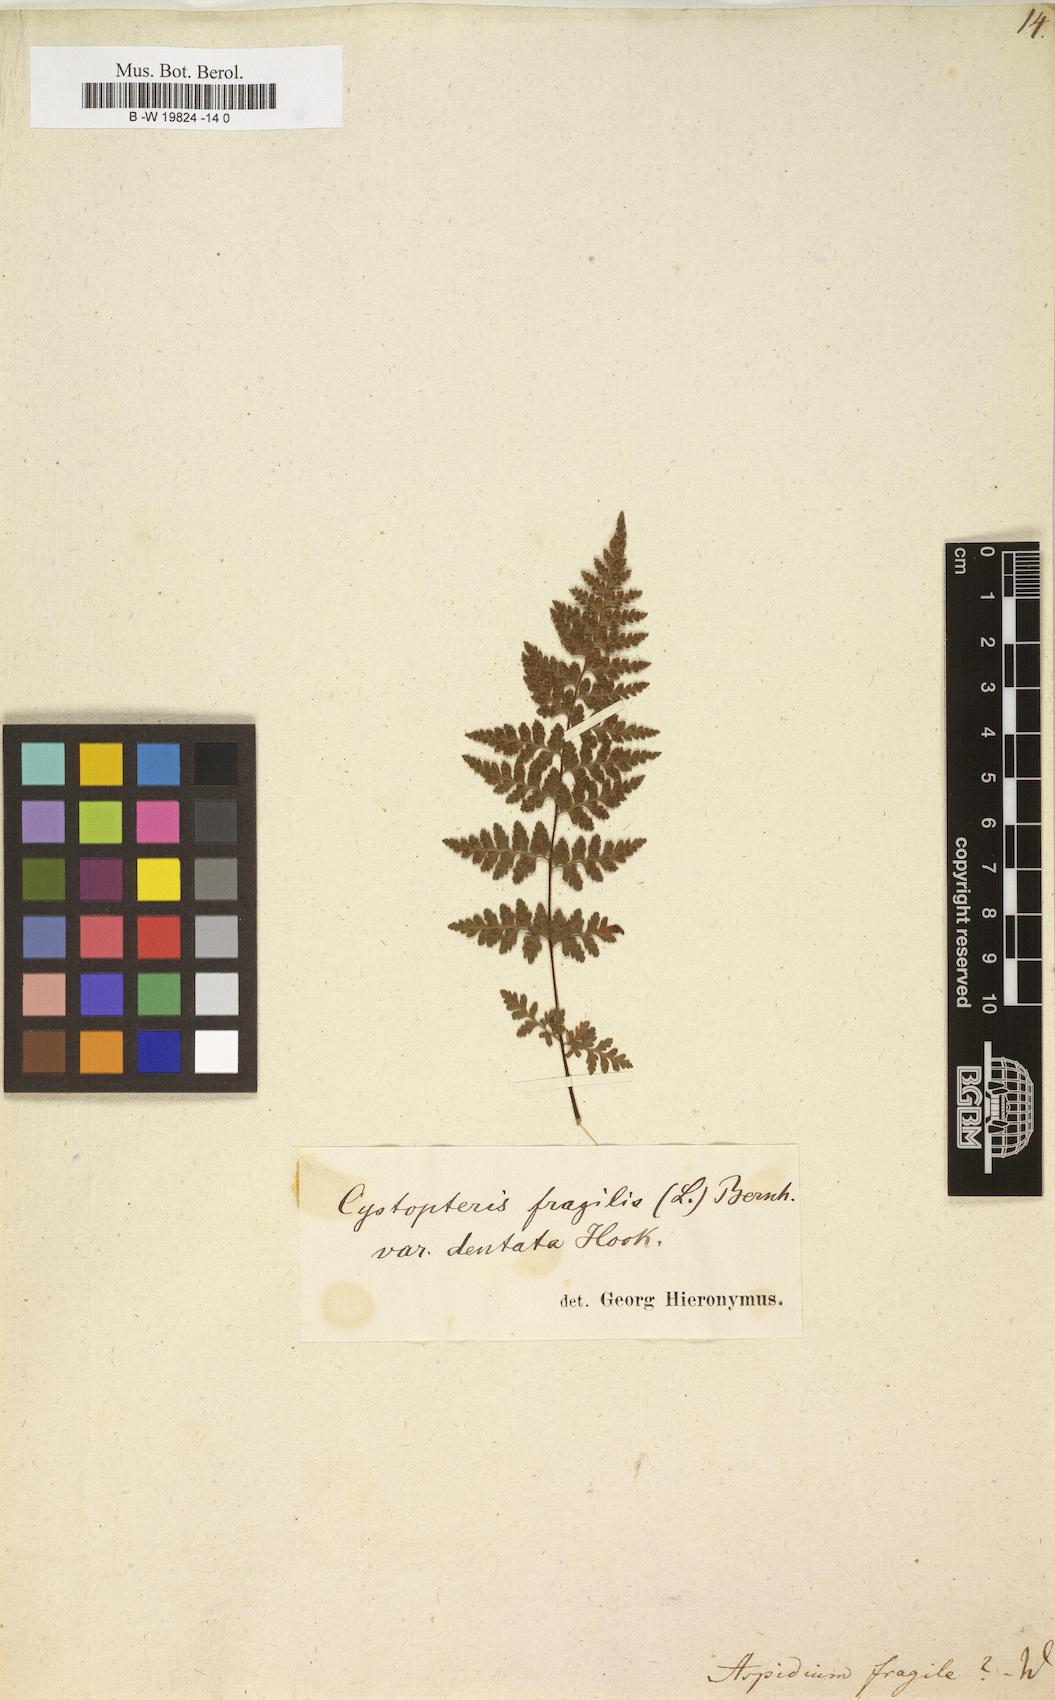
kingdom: Plantae
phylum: Tracheophyta
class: Polypodiopsida
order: Polypodiales
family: Cystopteridaceae
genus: Cystopteris
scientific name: Cystopteris fragilis
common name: Brittle bladder fern
